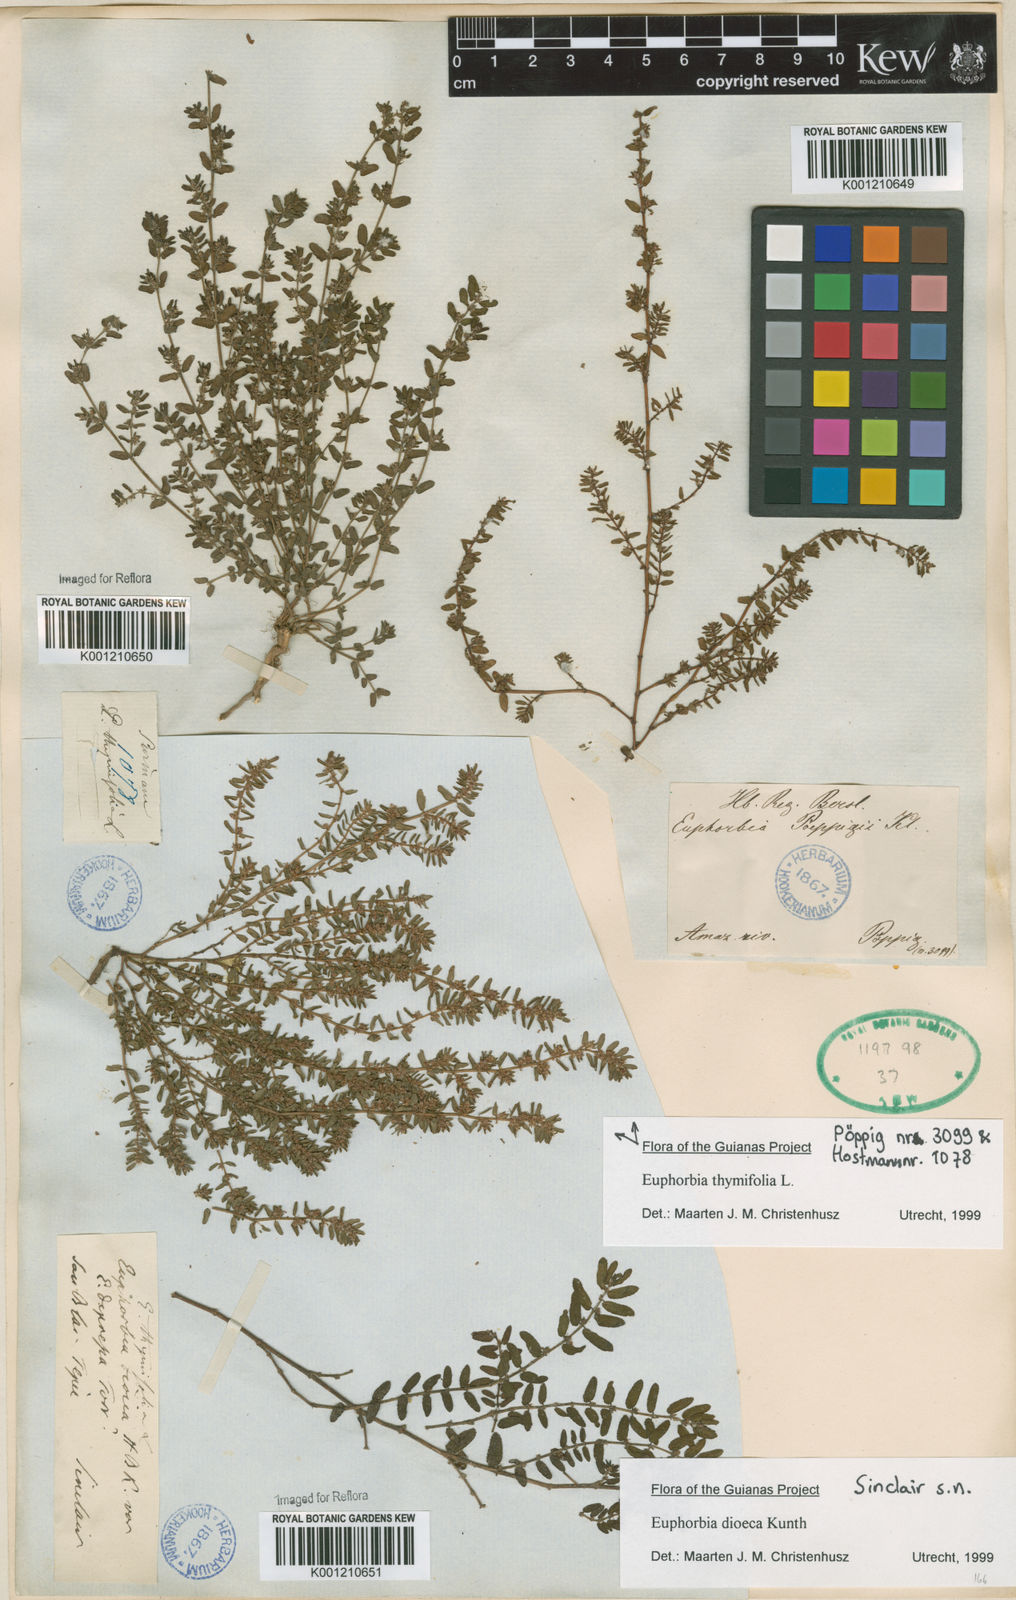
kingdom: Plantae
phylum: Tracheophyta
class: Magnoliopsida
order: Malpighiales
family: Euphorbiaceae
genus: Euphorbia
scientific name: Euphorbia serpens
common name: Matted sandmat
